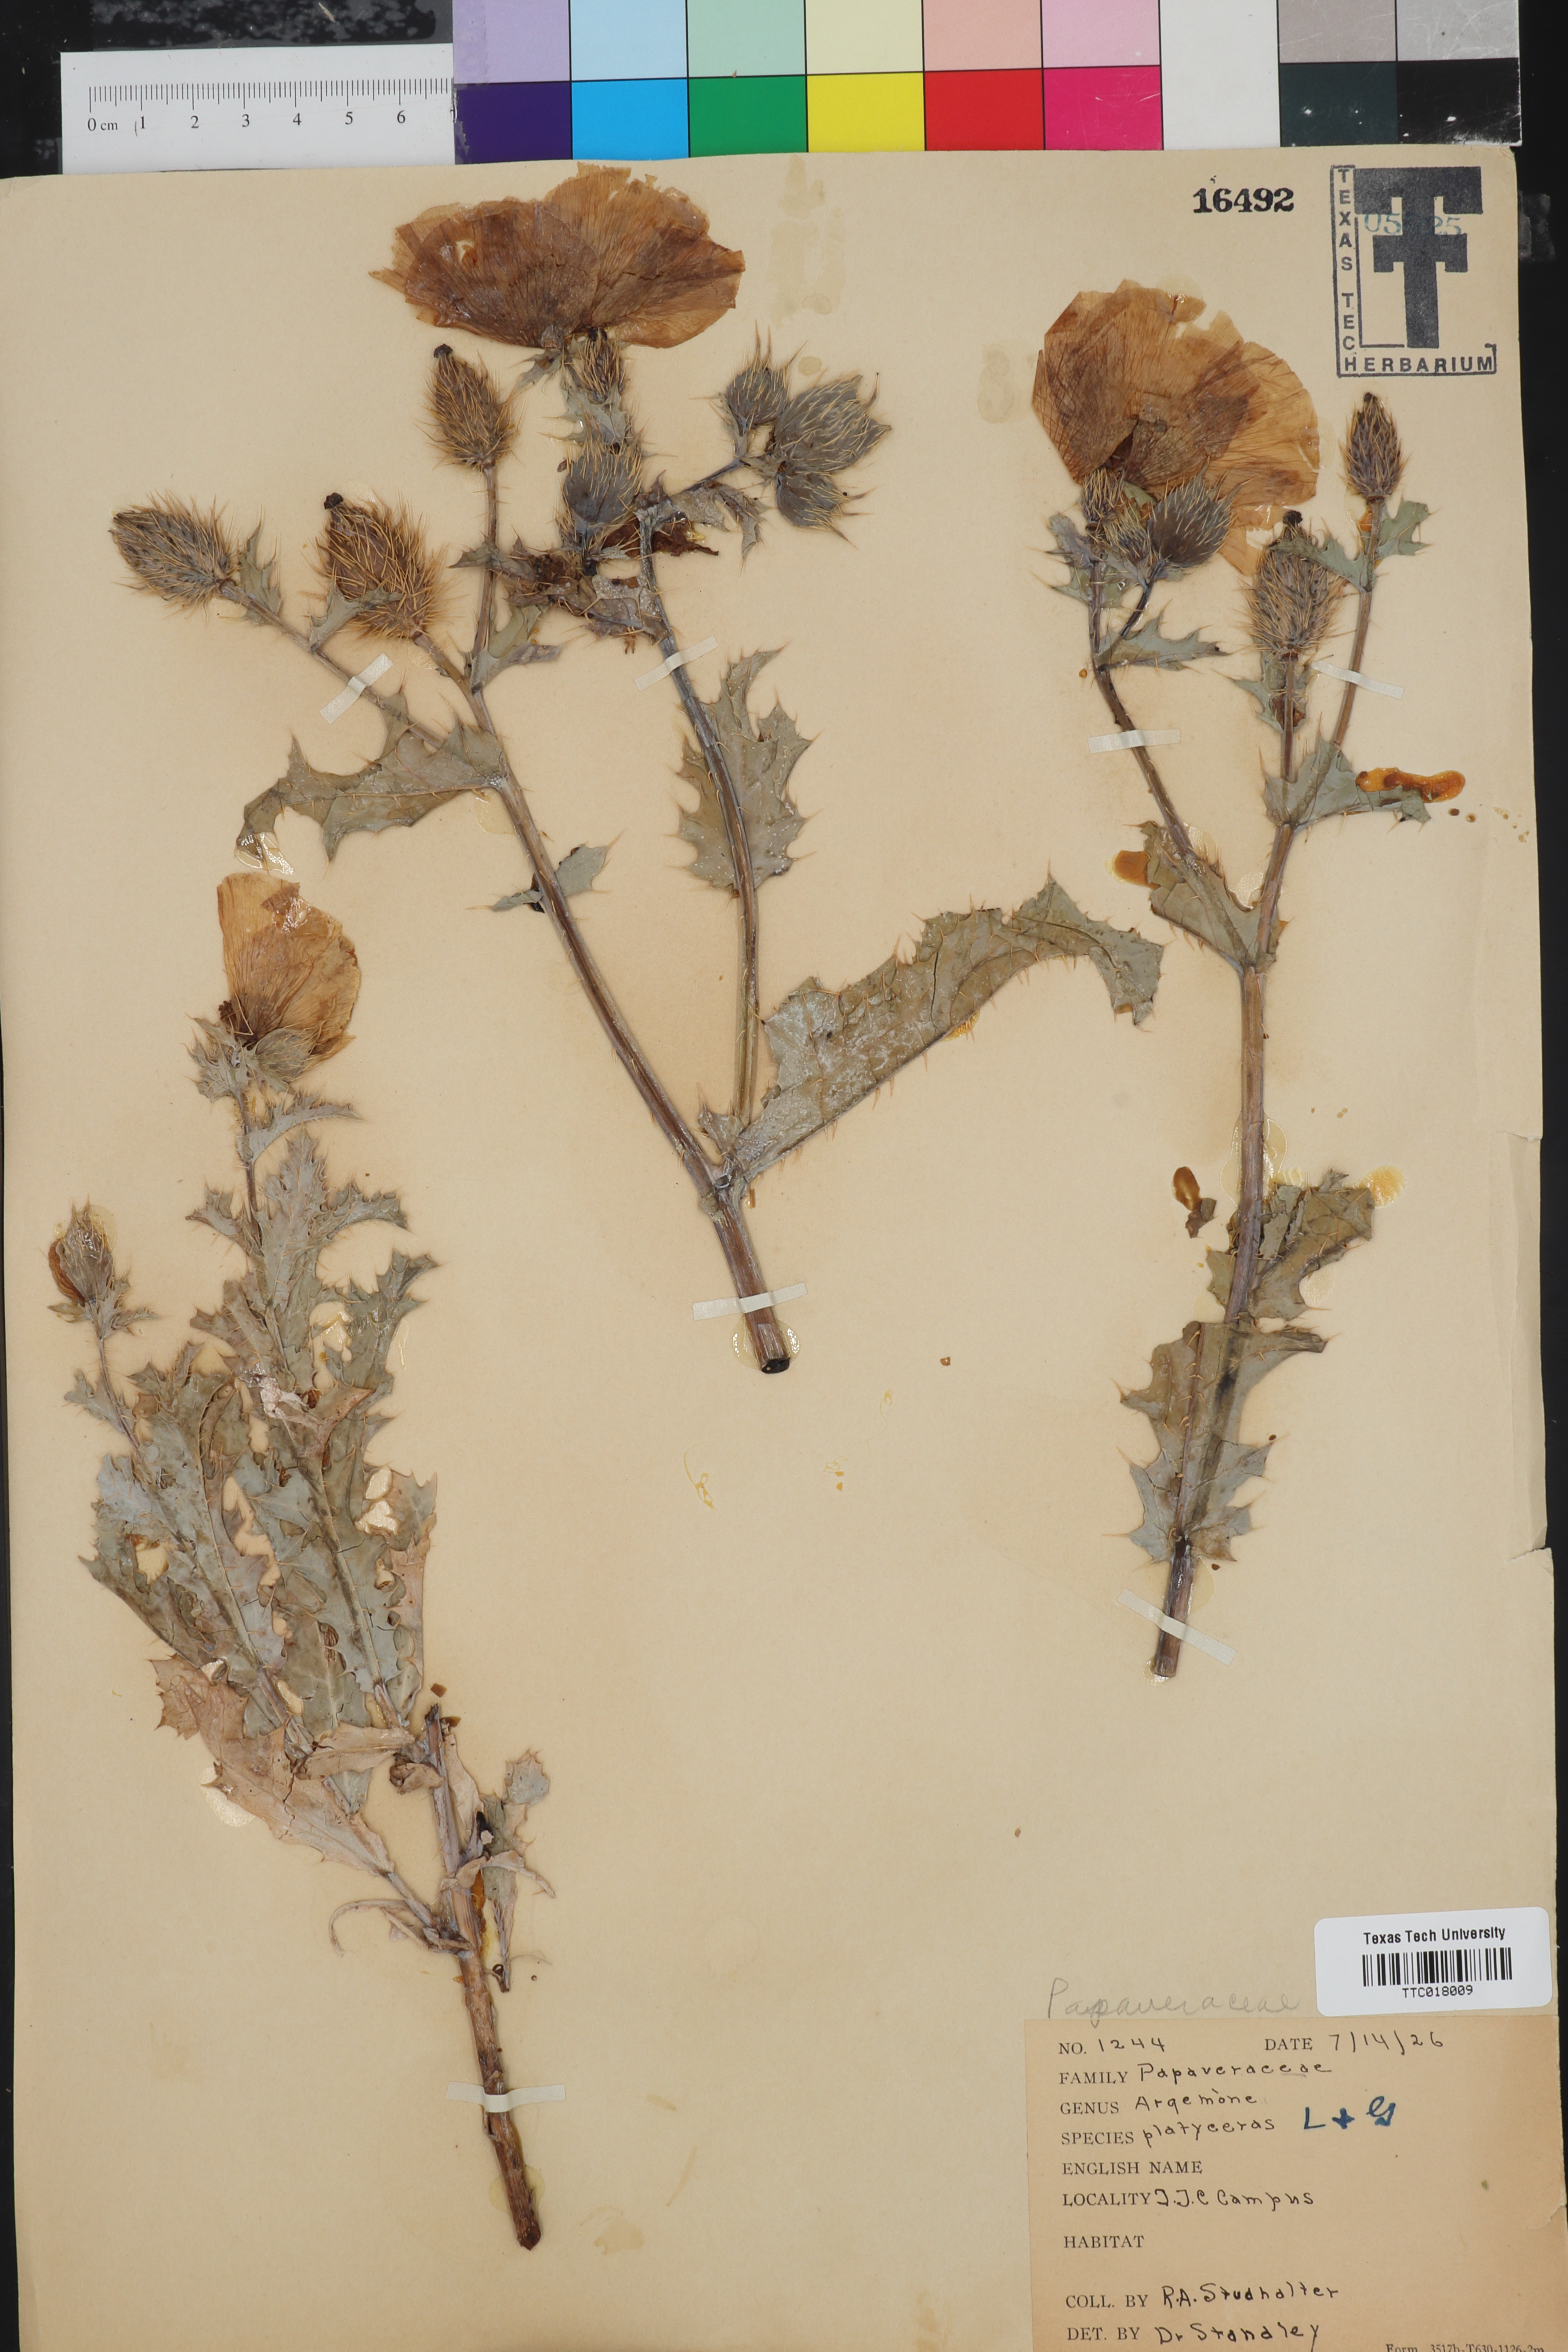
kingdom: Plantae
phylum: Tracheophyta
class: Magnoliopsida
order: Ranunculales
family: Papaveraceae
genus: Argemone
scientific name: Argemone platyceras
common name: Crested-poppy
